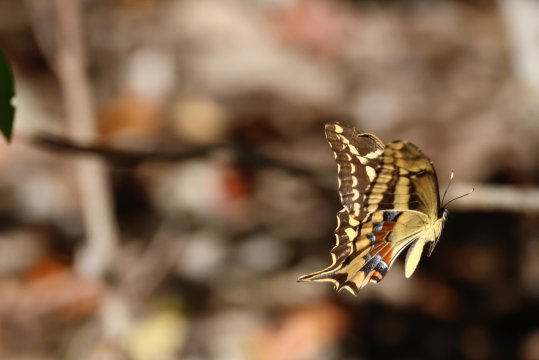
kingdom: Animalia
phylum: Arthropoda
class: Insecta
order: Lepidoptera
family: Papilionidae
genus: Heraclides
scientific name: Heraclides ponceana
